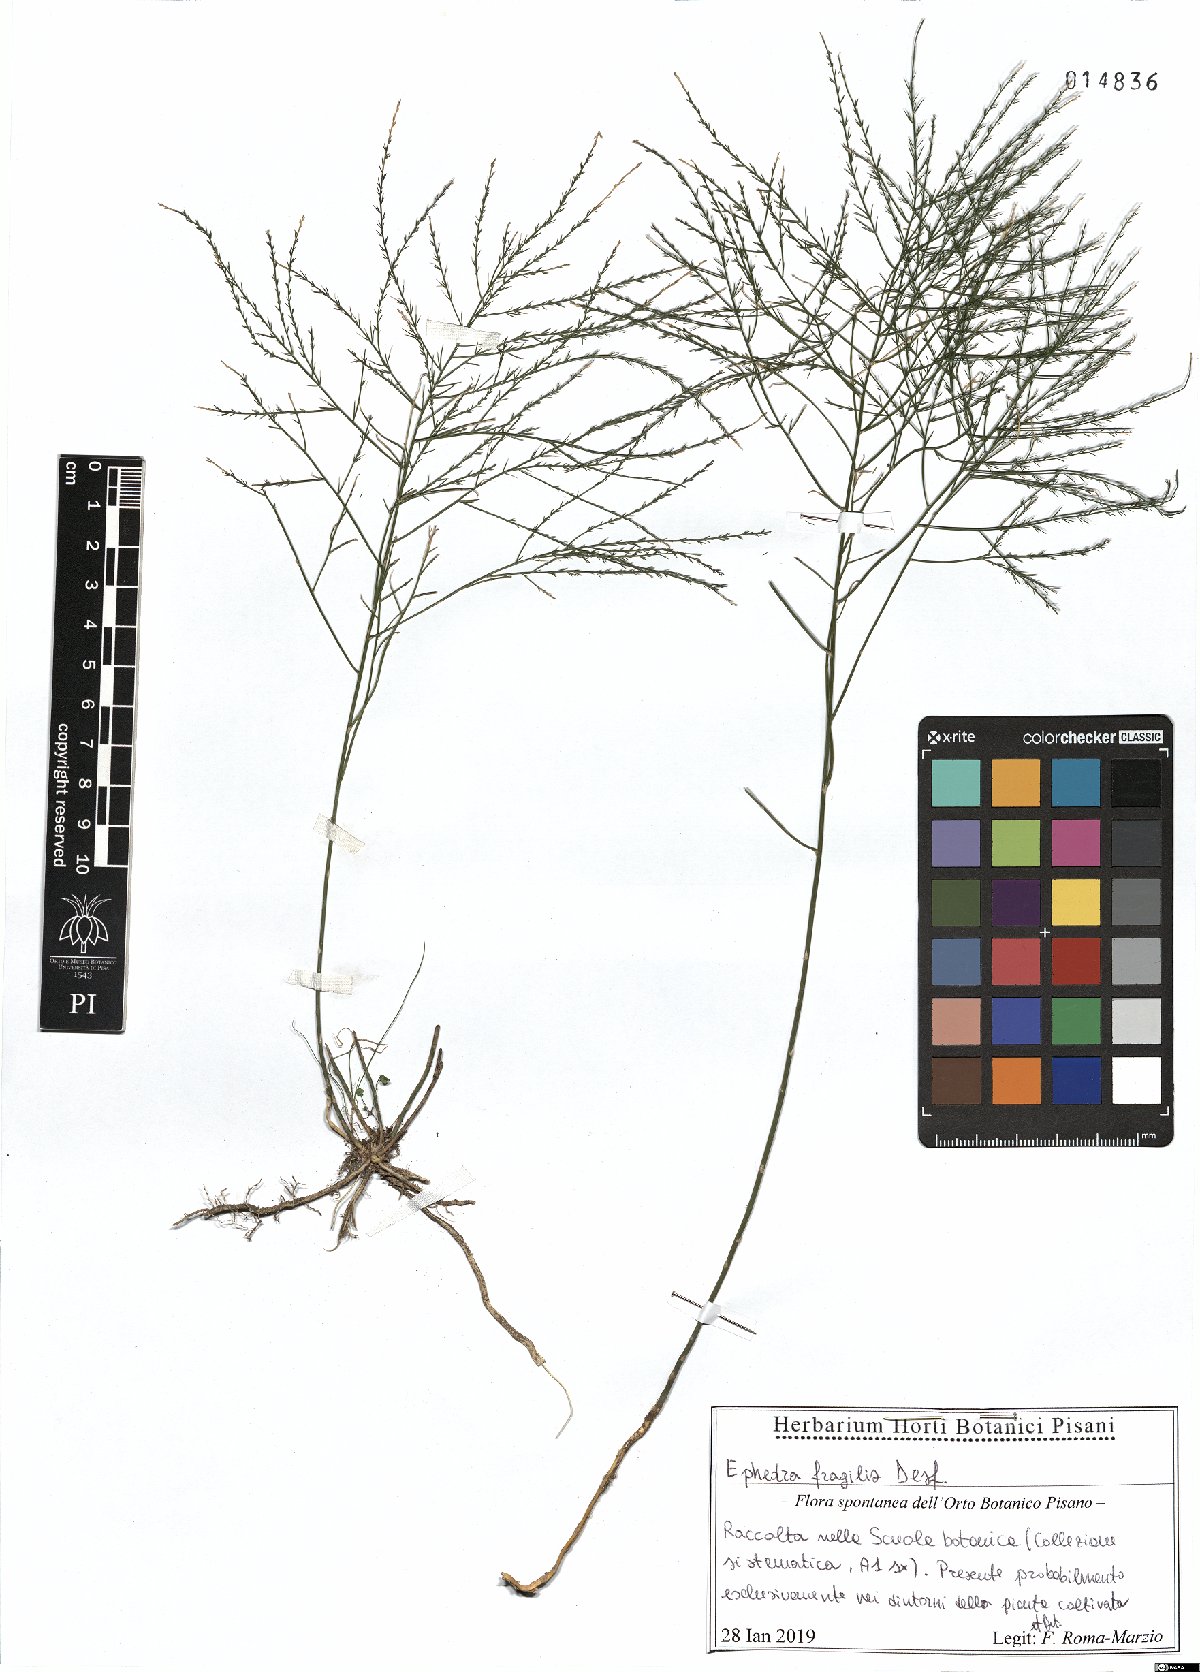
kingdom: Plantae
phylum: Tracheophyta
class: Gnetopsida
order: Ephedrales
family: Ephedraceae
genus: Ephedra
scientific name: Ephedra fragilis
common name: Joint pine
